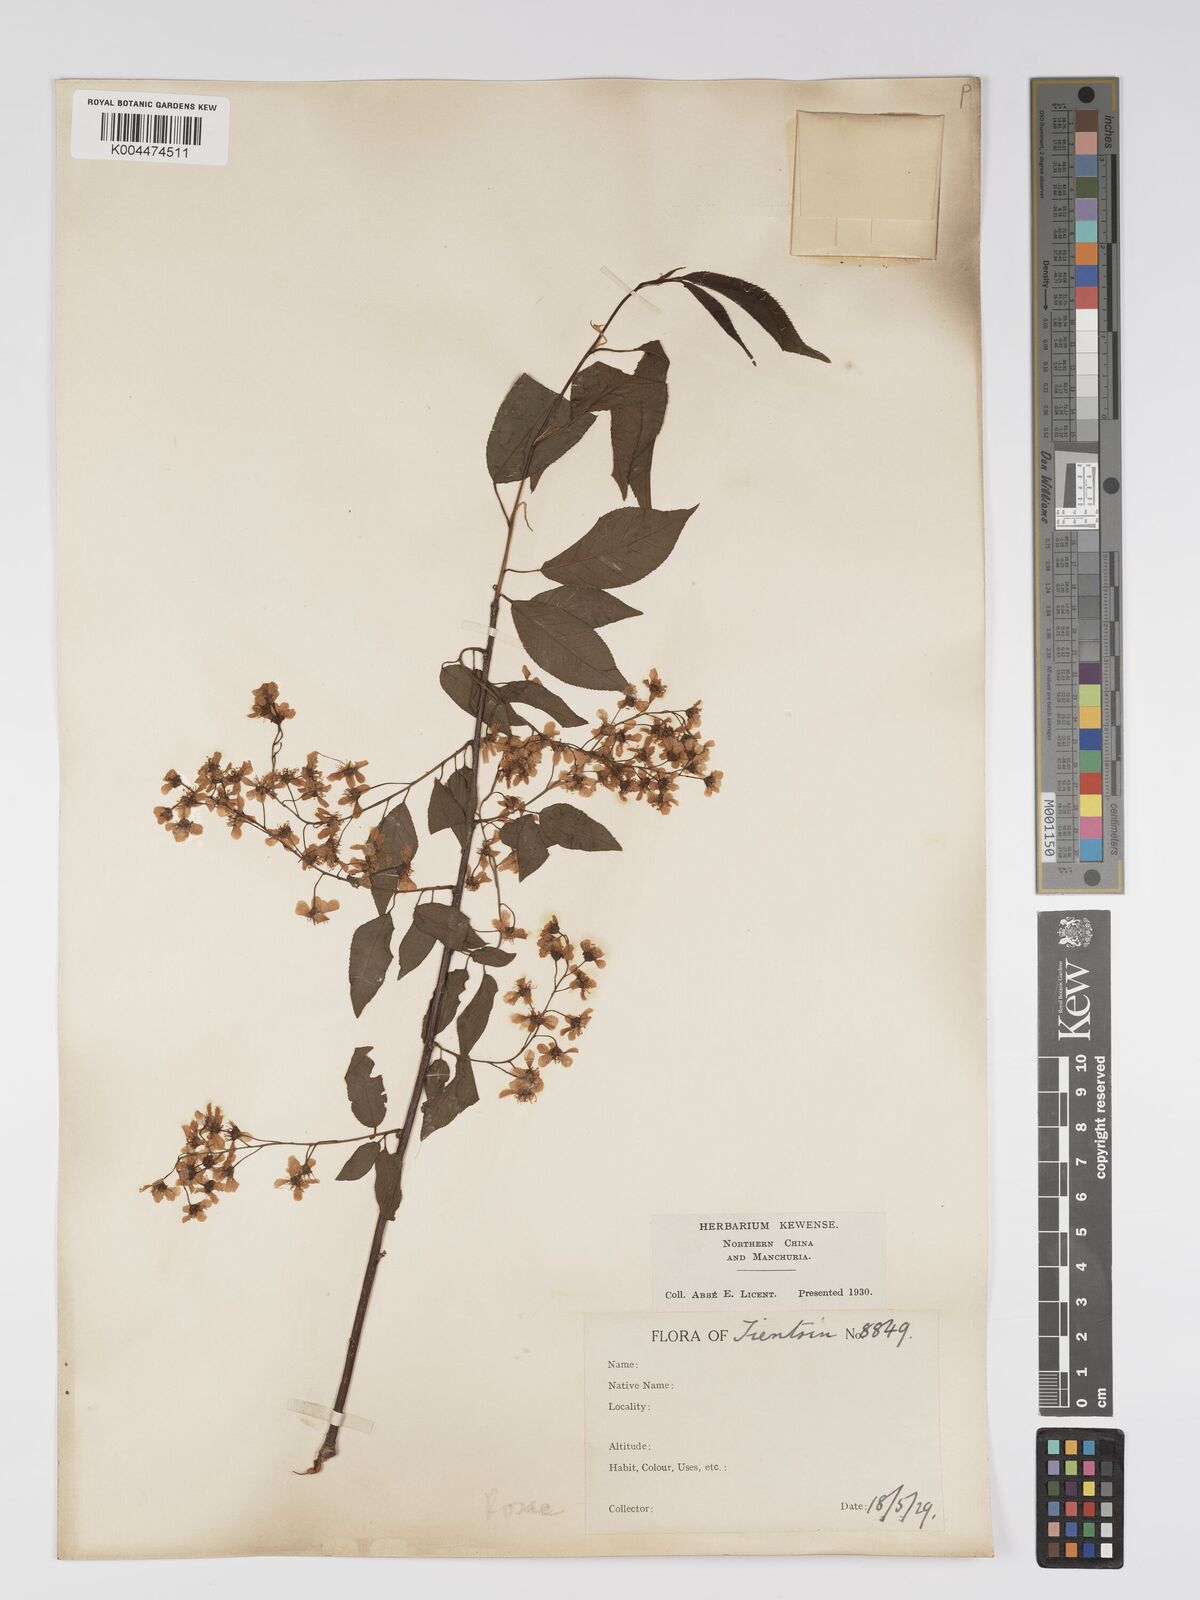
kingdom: Plantae
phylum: Tracheophyta
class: Magnoliopsida
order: Rosales
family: Rosaceae
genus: Prunus
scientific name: Prunus
